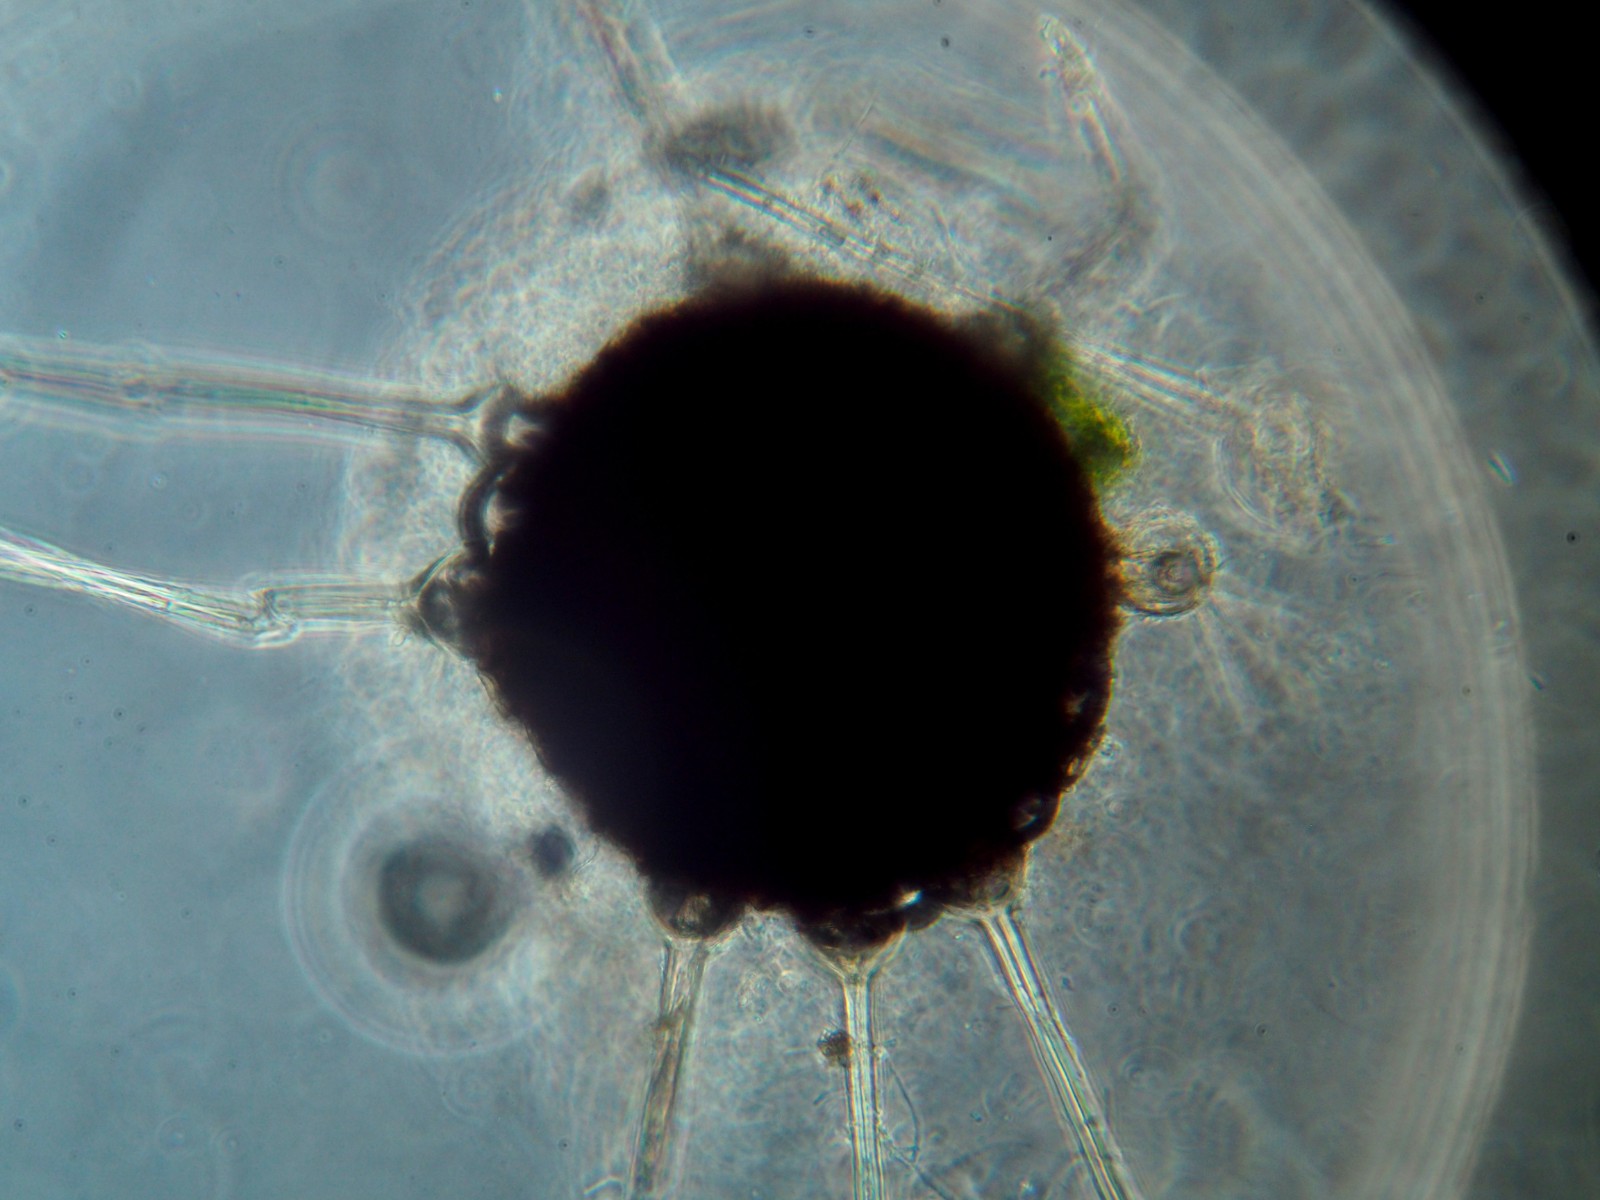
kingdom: Fungi
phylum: Ascomycota
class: Leotiomycetes
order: Helotiales
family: Erysiphaceae
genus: Phyllactinia
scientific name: Phyllactinia guttata
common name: hassel-meldug
